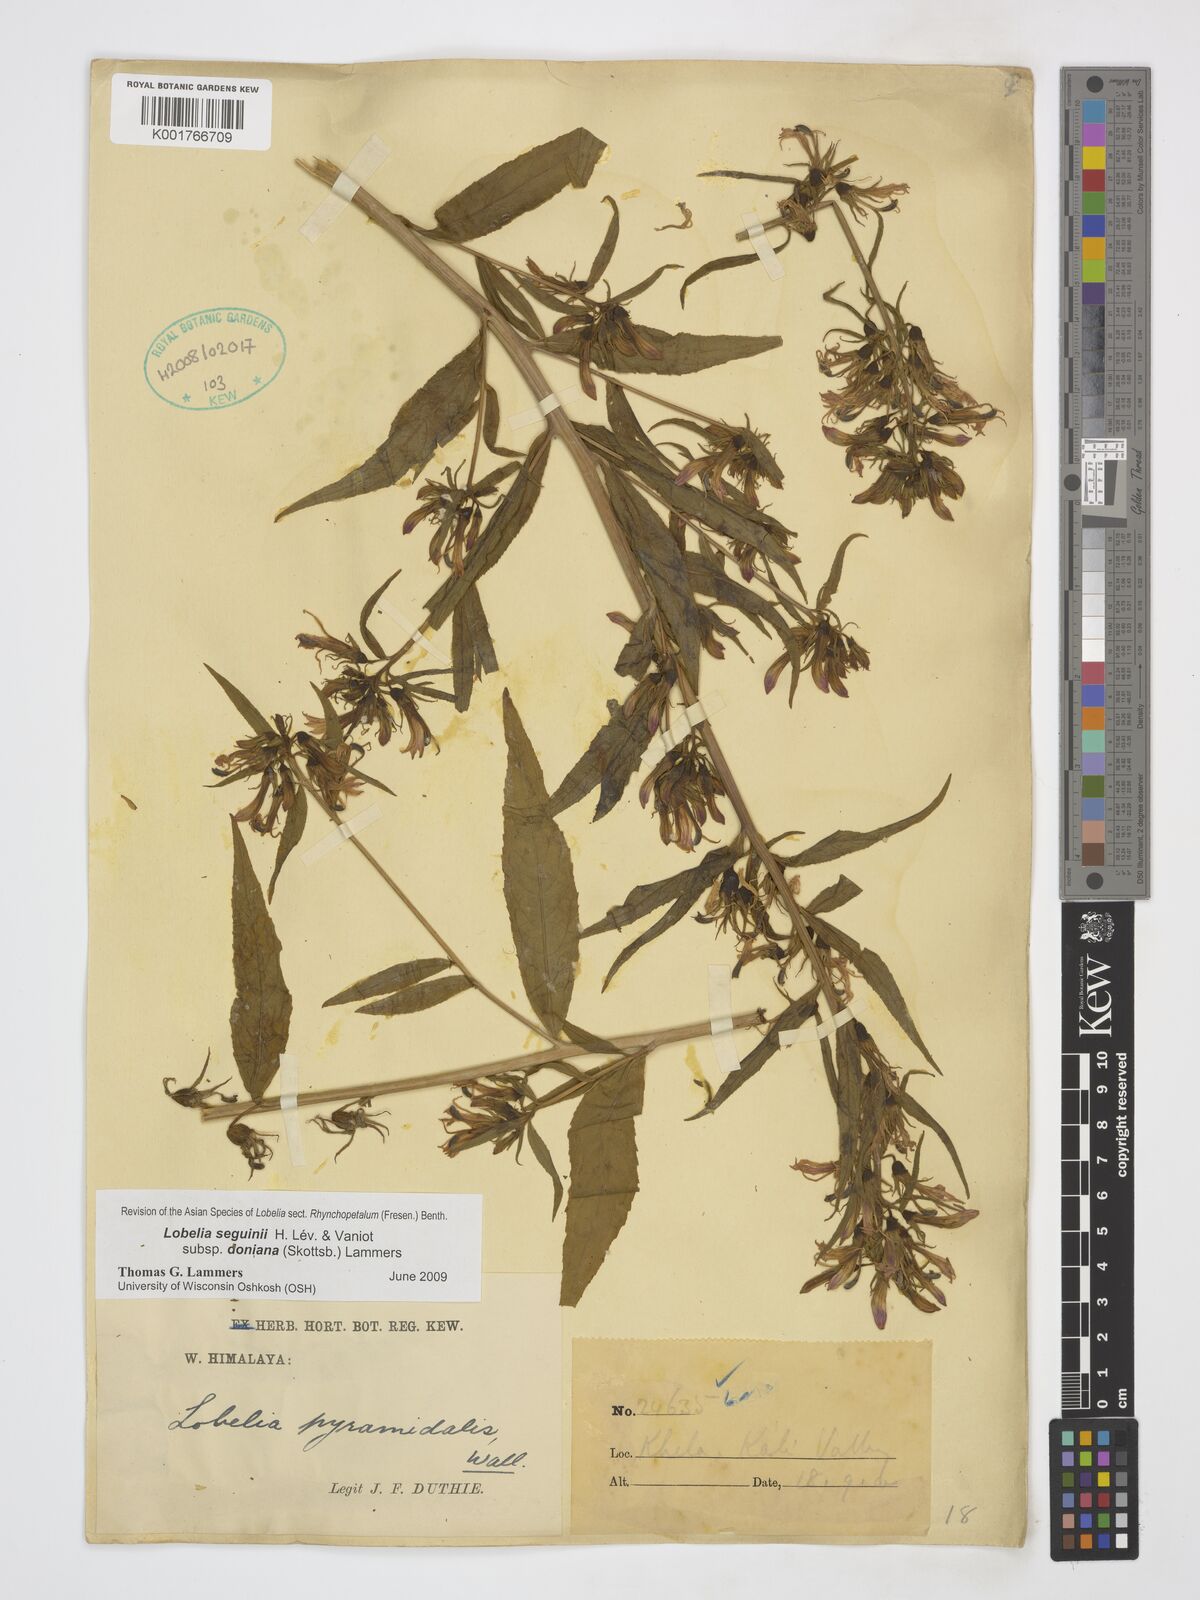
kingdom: Plantae
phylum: Tracheophyta
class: Magnoliopsida
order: Asterales
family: Campanulaceae
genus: Lobelia
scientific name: Lobelia seguinii
